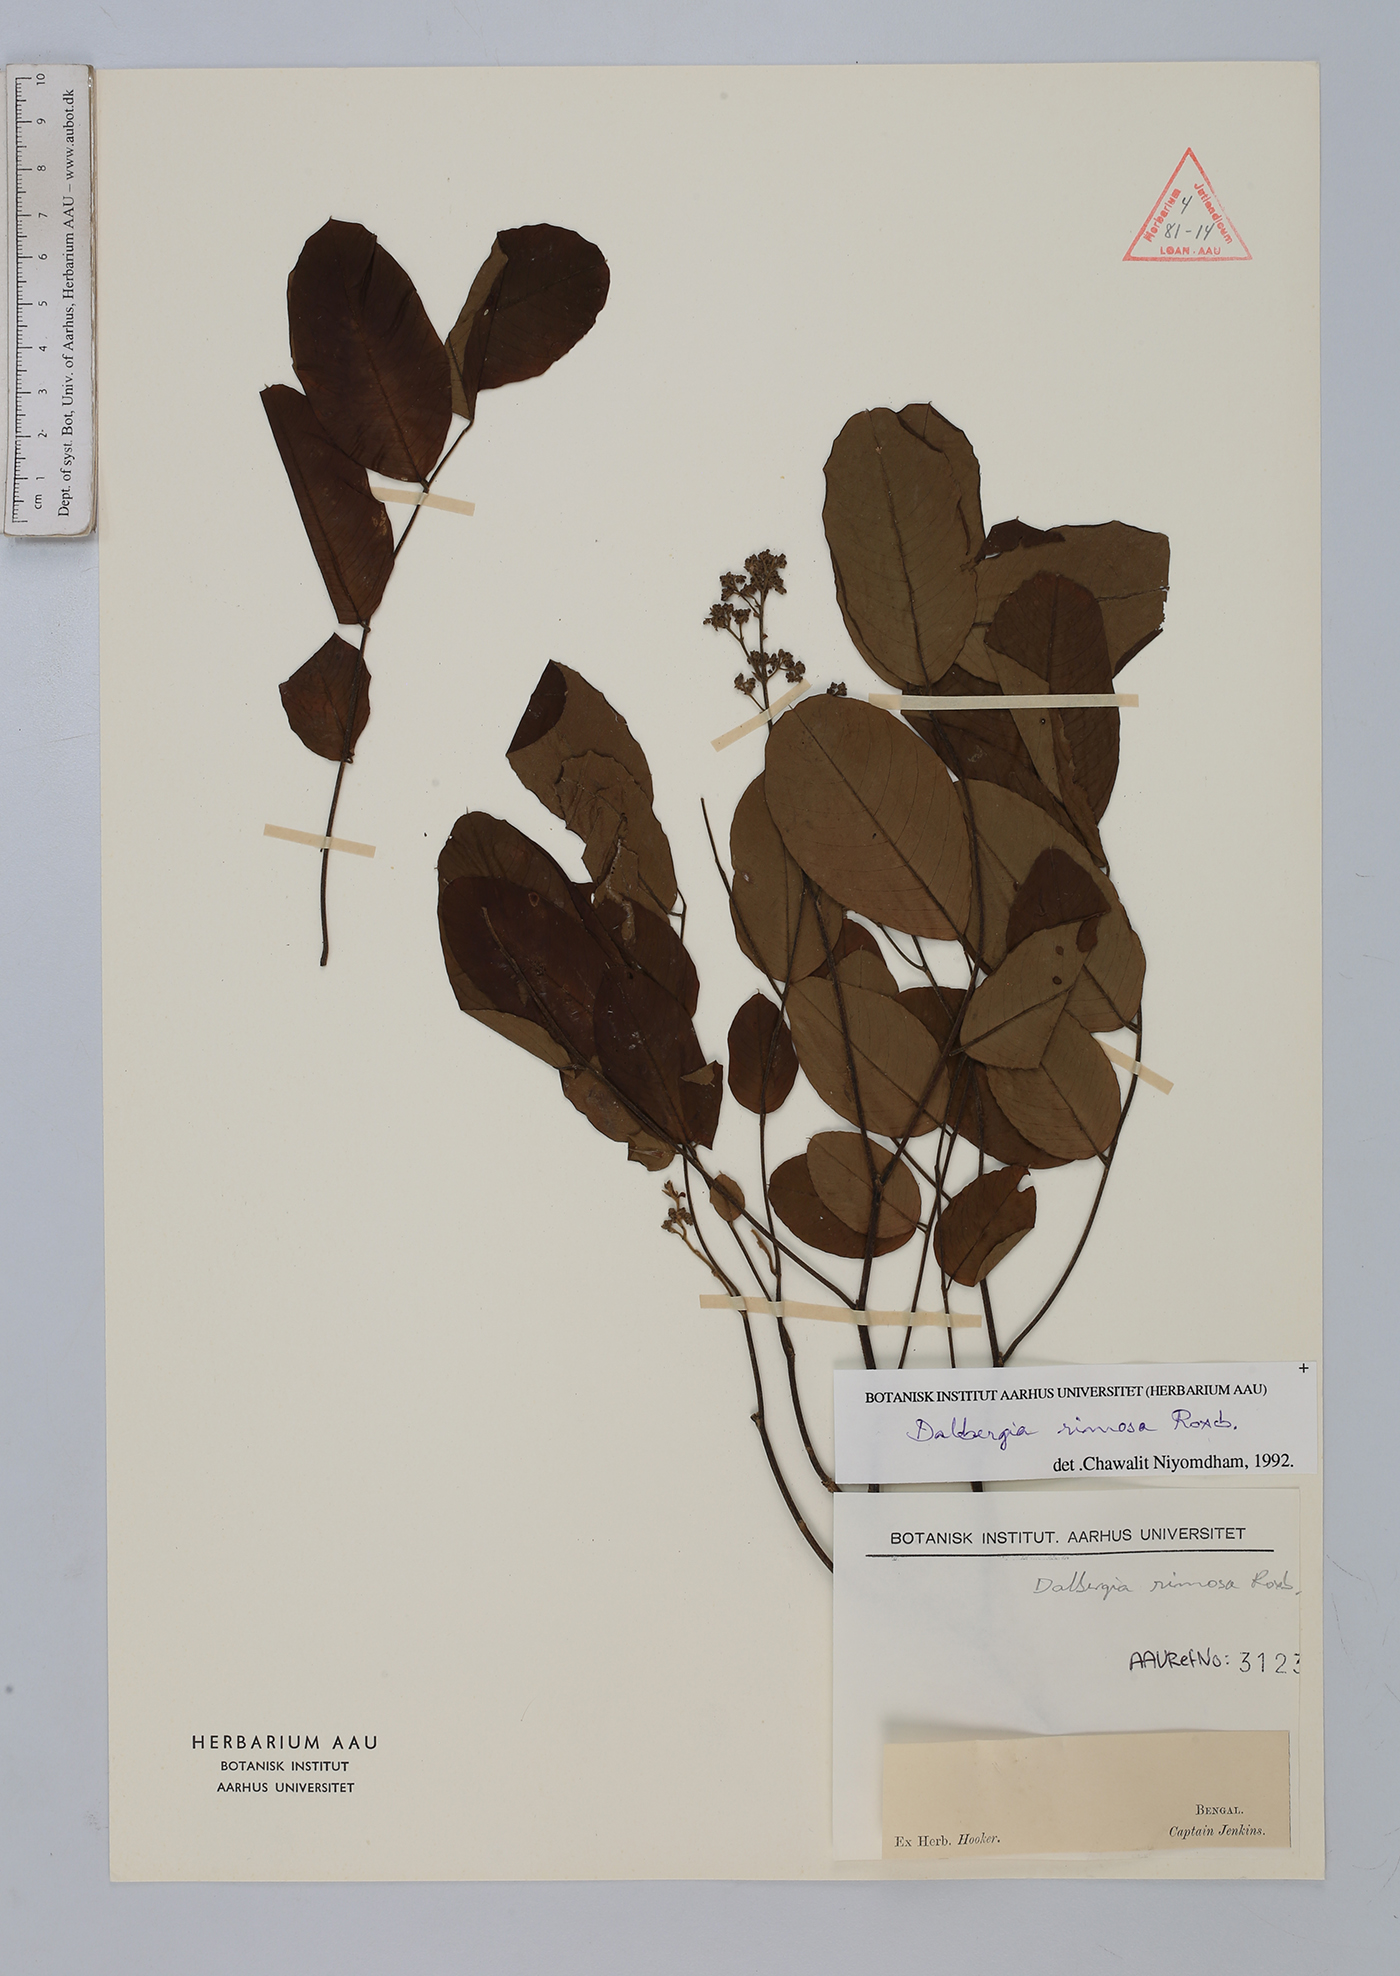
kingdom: Plantae
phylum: Tracheophyta
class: Magnoliopsida
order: Fabales
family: Fabaceae
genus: Dalbergia
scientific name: Dalbergia rimosa
